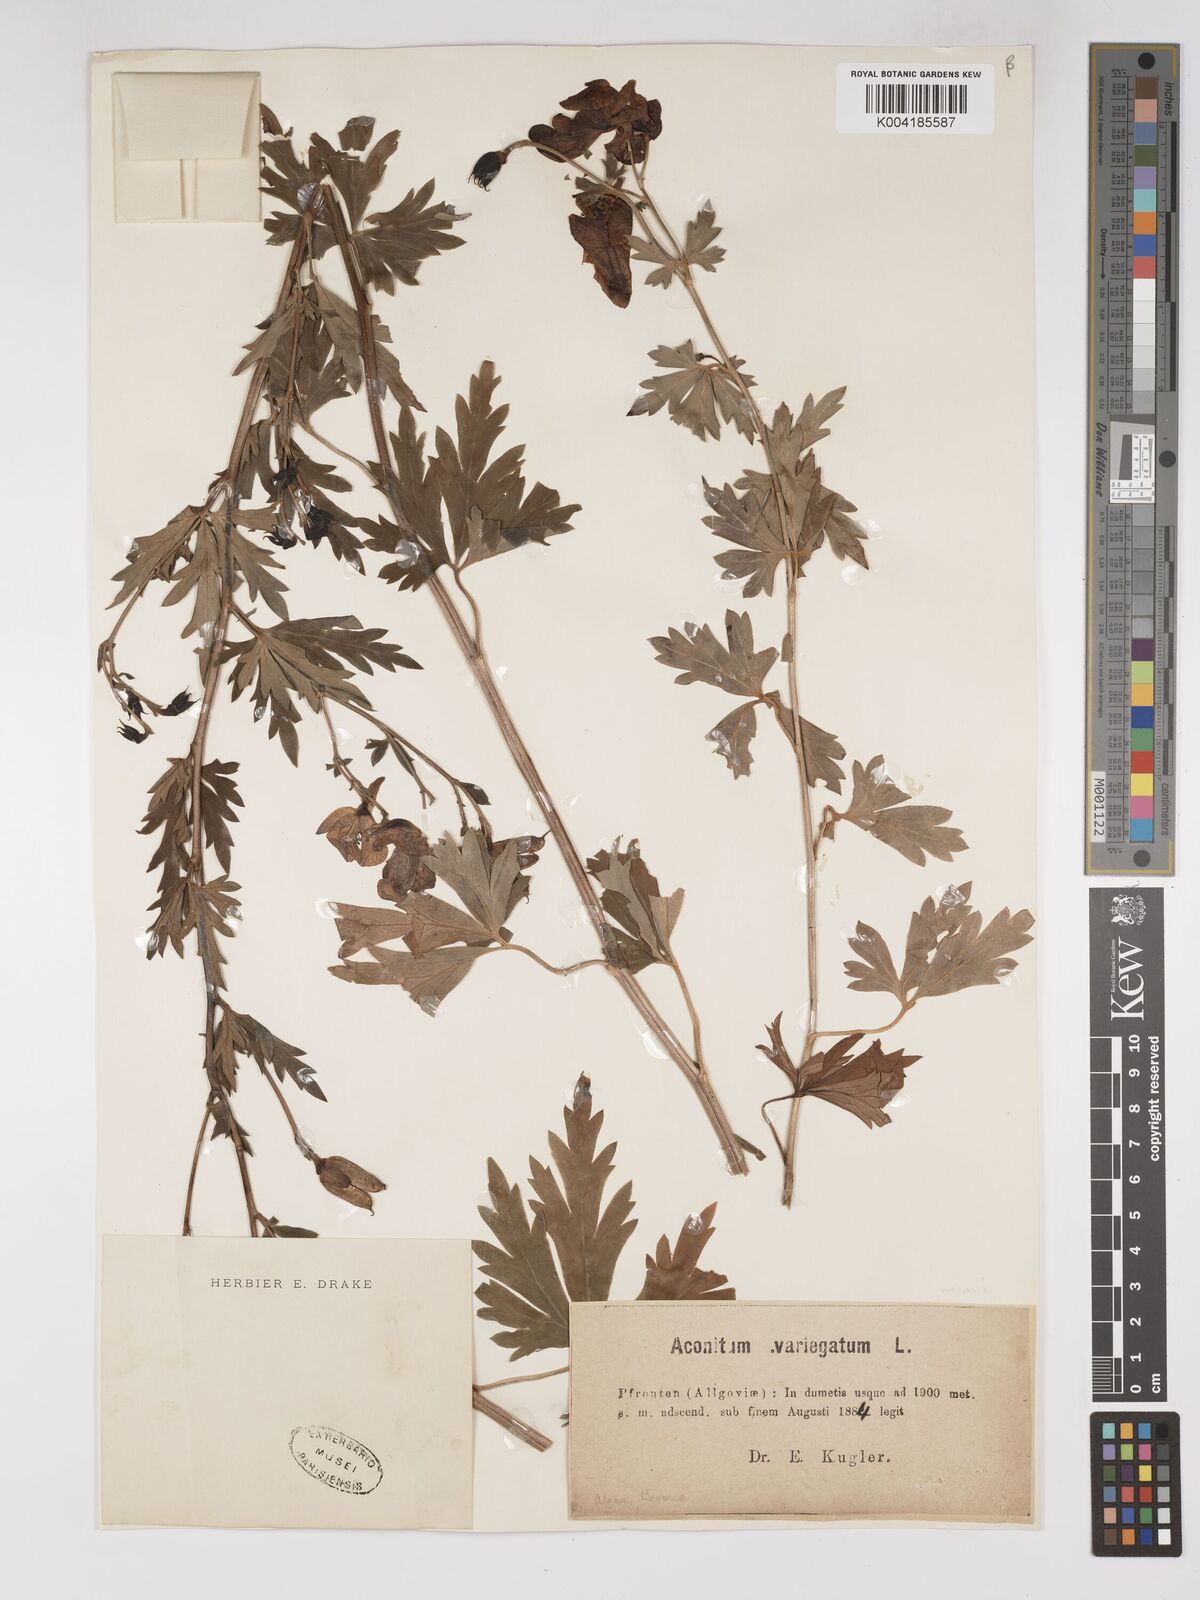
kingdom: Plantae
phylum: Tracheophyta
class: Magnoliopsida
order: Ranunculales
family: Ranunculaceae
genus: Aconitum
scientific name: Aconitum lycoctonum
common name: Wolf's-bane
